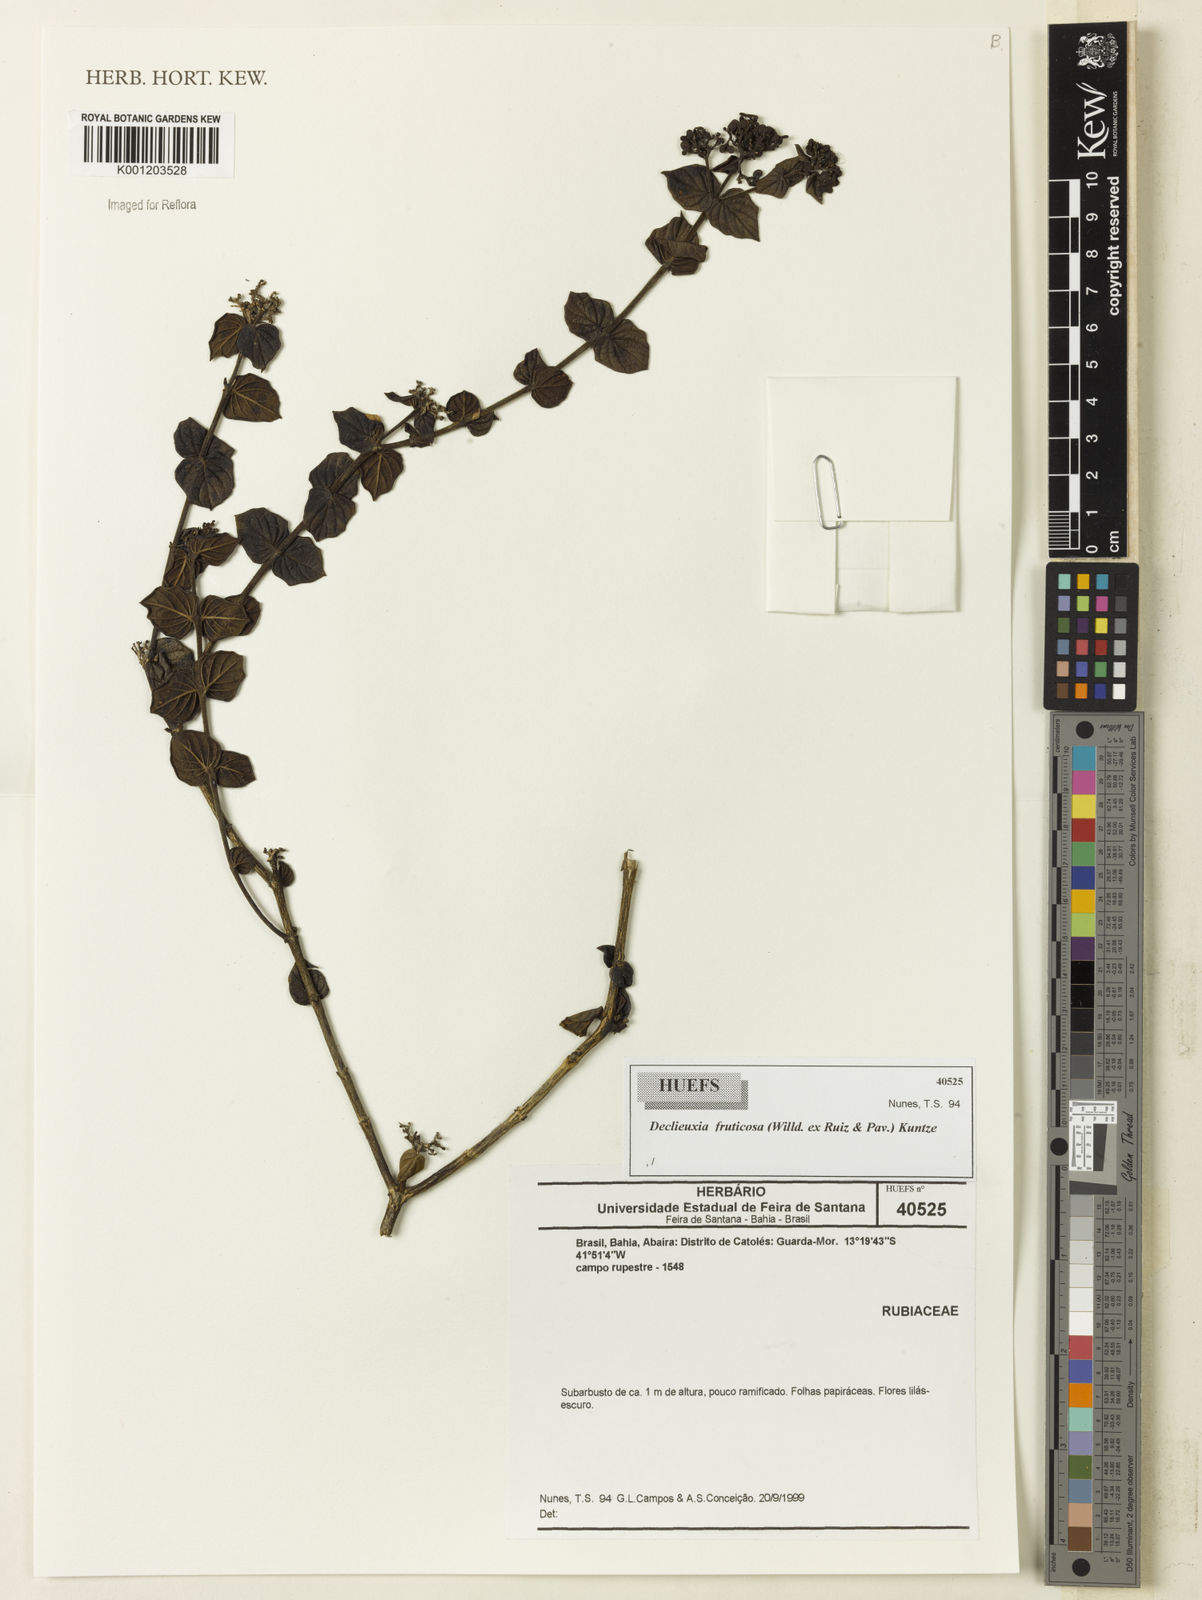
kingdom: Plantae
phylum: Tracheophyta
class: Magnoliopsida
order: Gentianales
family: Rubiaceae
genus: Declieuxia
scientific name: Declieuxia fruticosa
